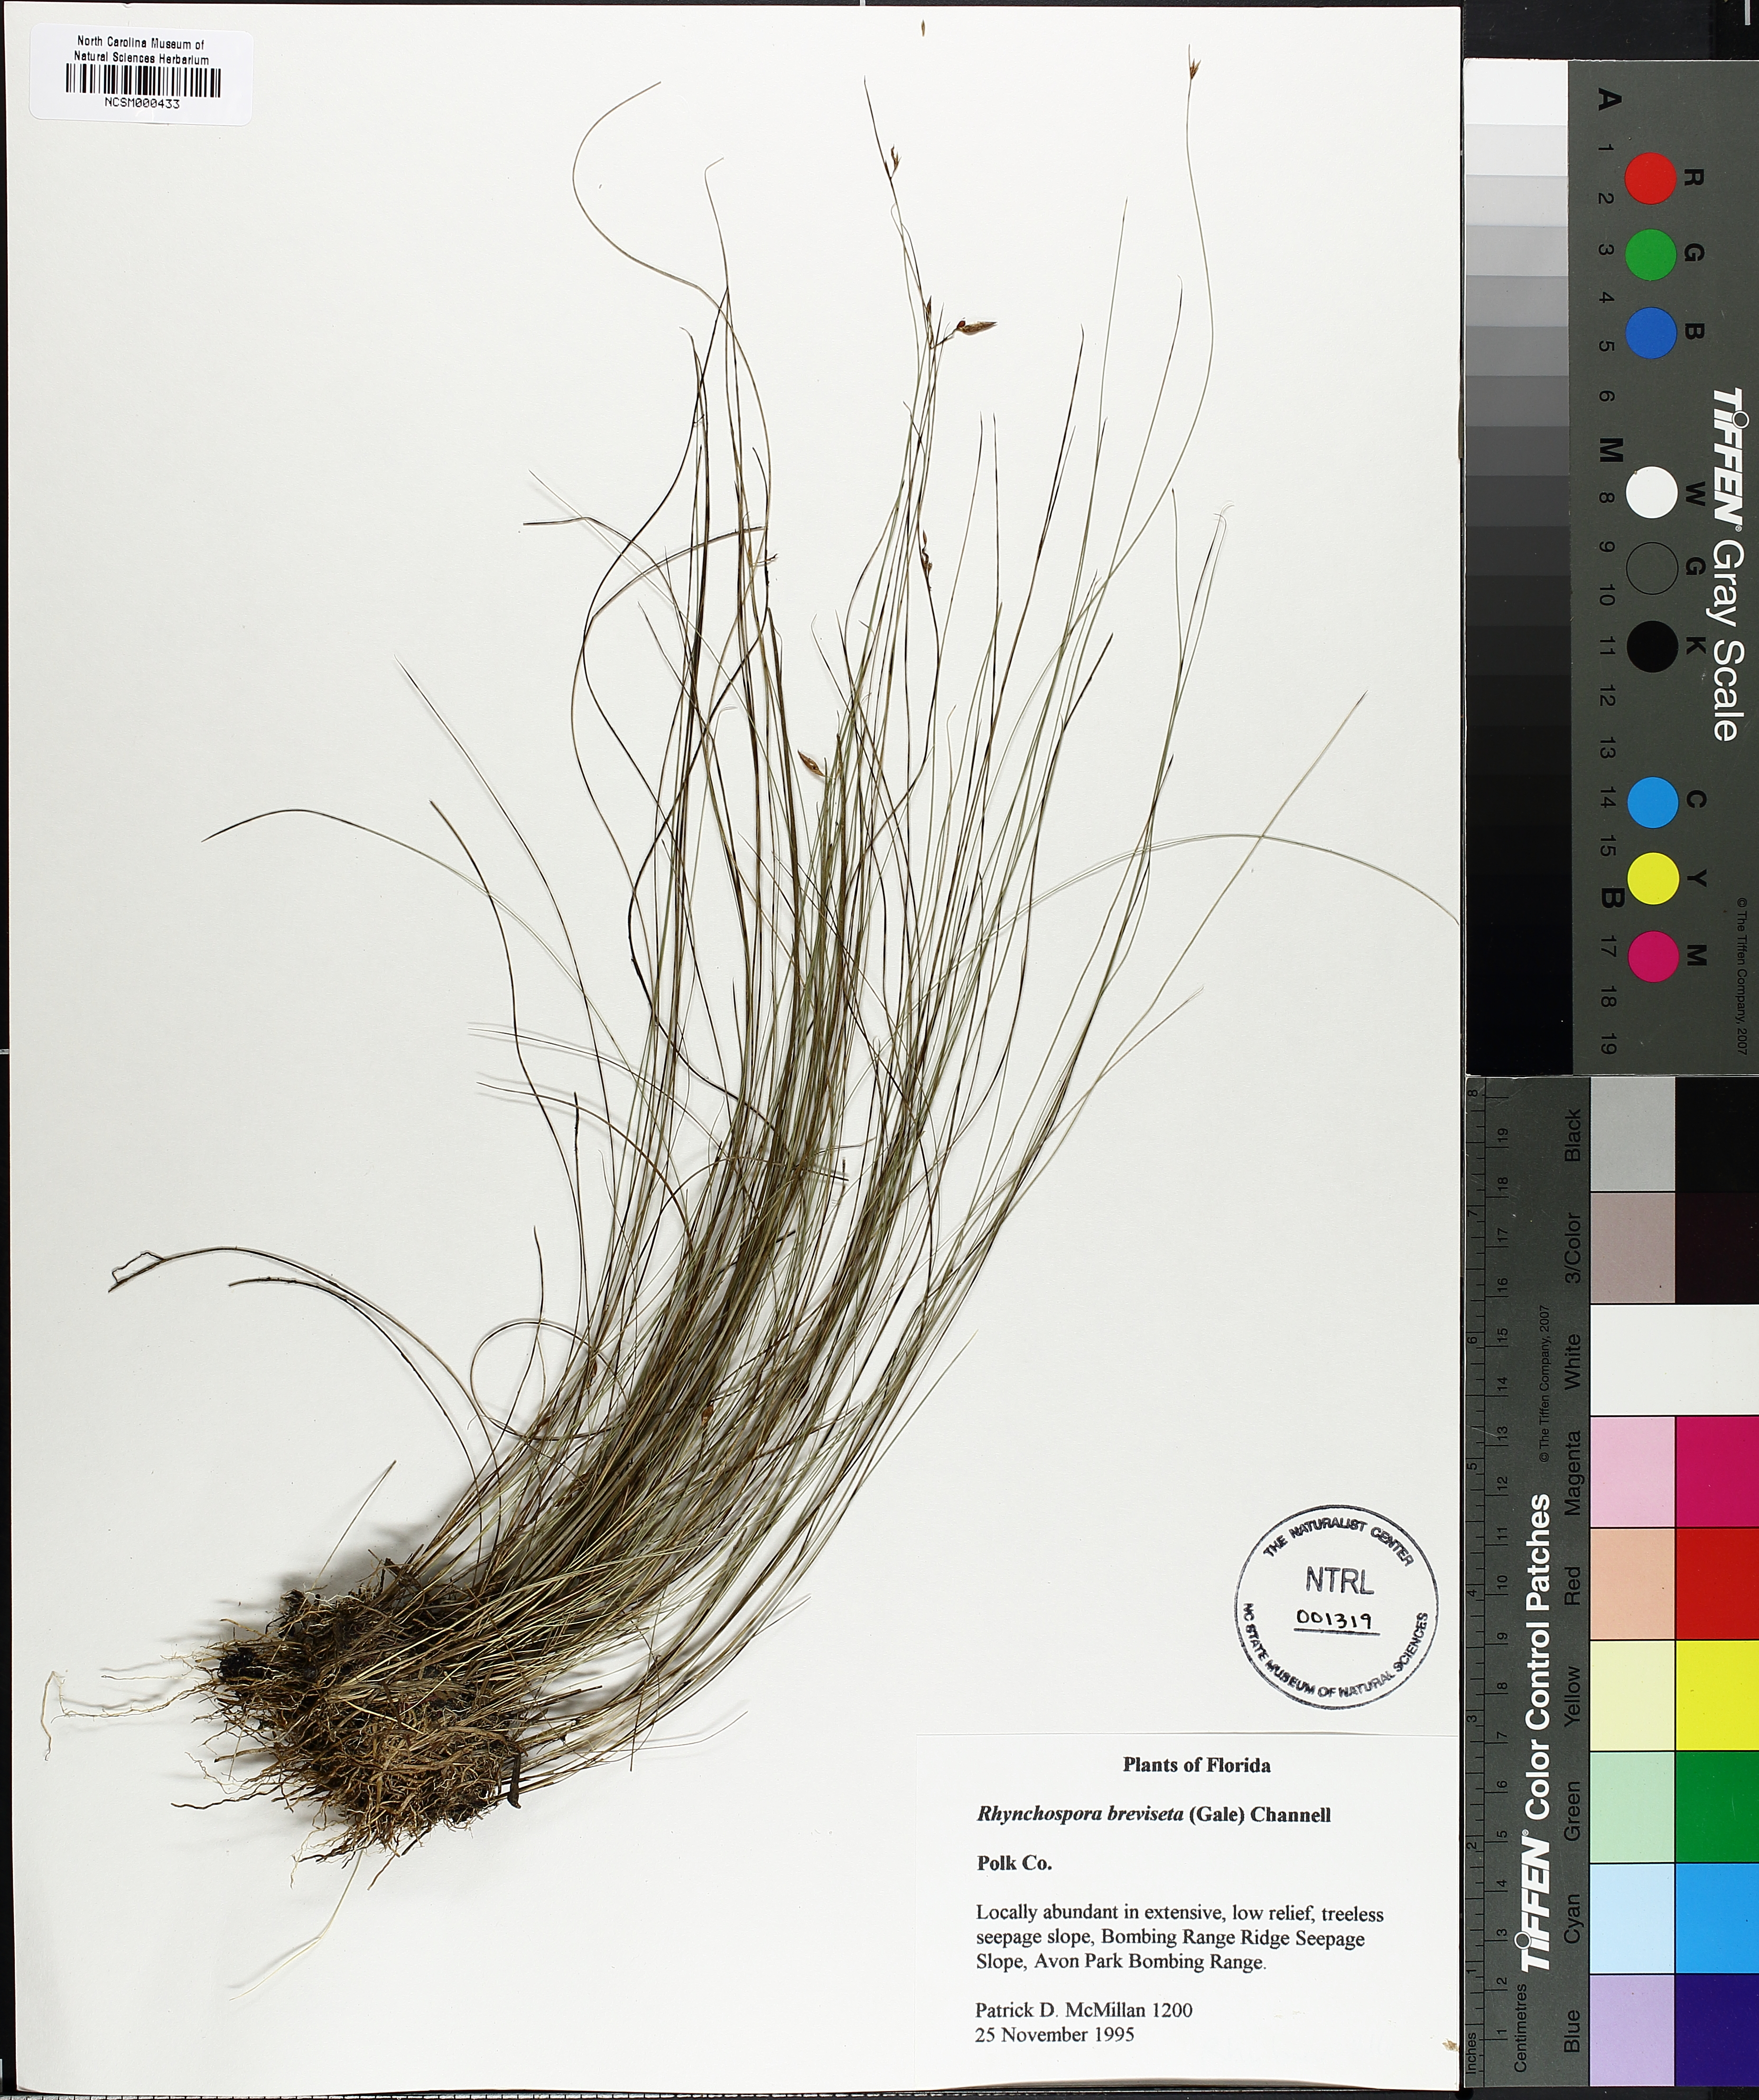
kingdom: Plantae
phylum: Tracheophyta
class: Liliopsida
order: Poales
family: Cyperaceae
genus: Rhynchospora
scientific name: Rhynchospora galeana
